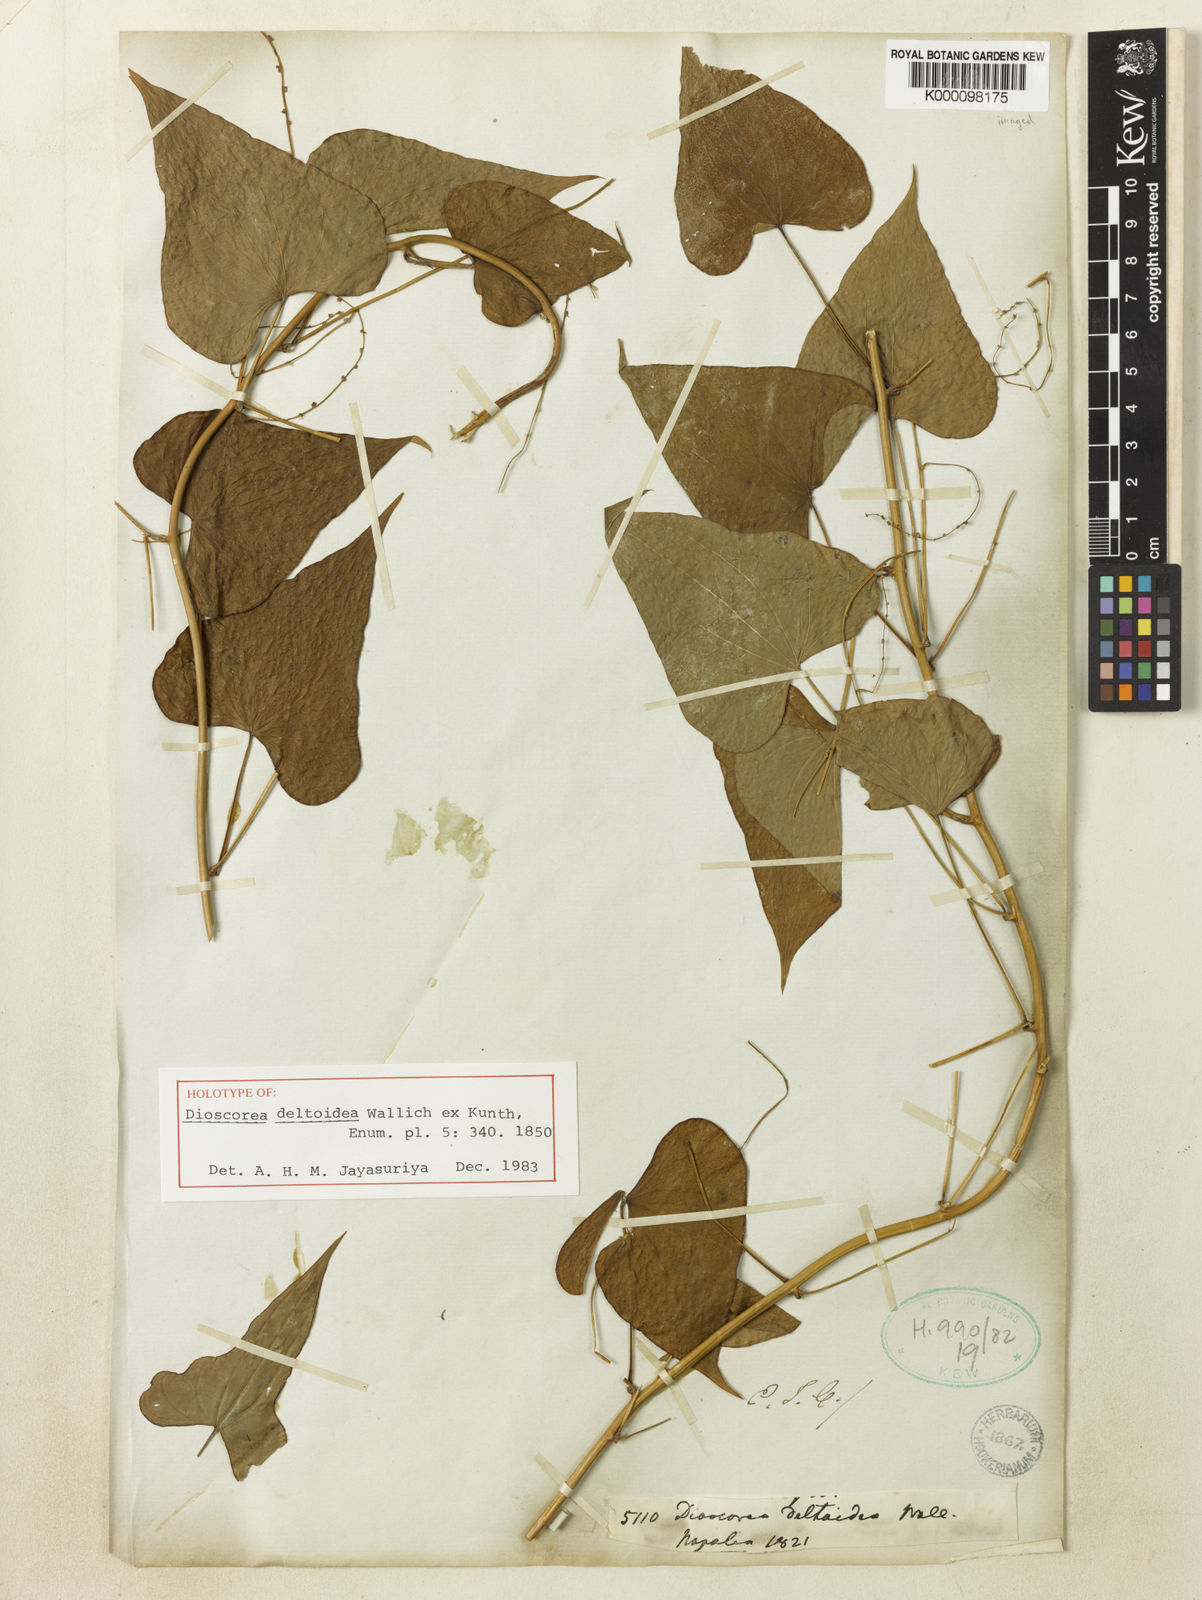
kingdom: Plantae
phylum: Tracheophyta
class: Liliopsida
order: Dioscoreales
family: Dioscoreaceae
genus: Dioscorea
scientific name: Dioscorea
